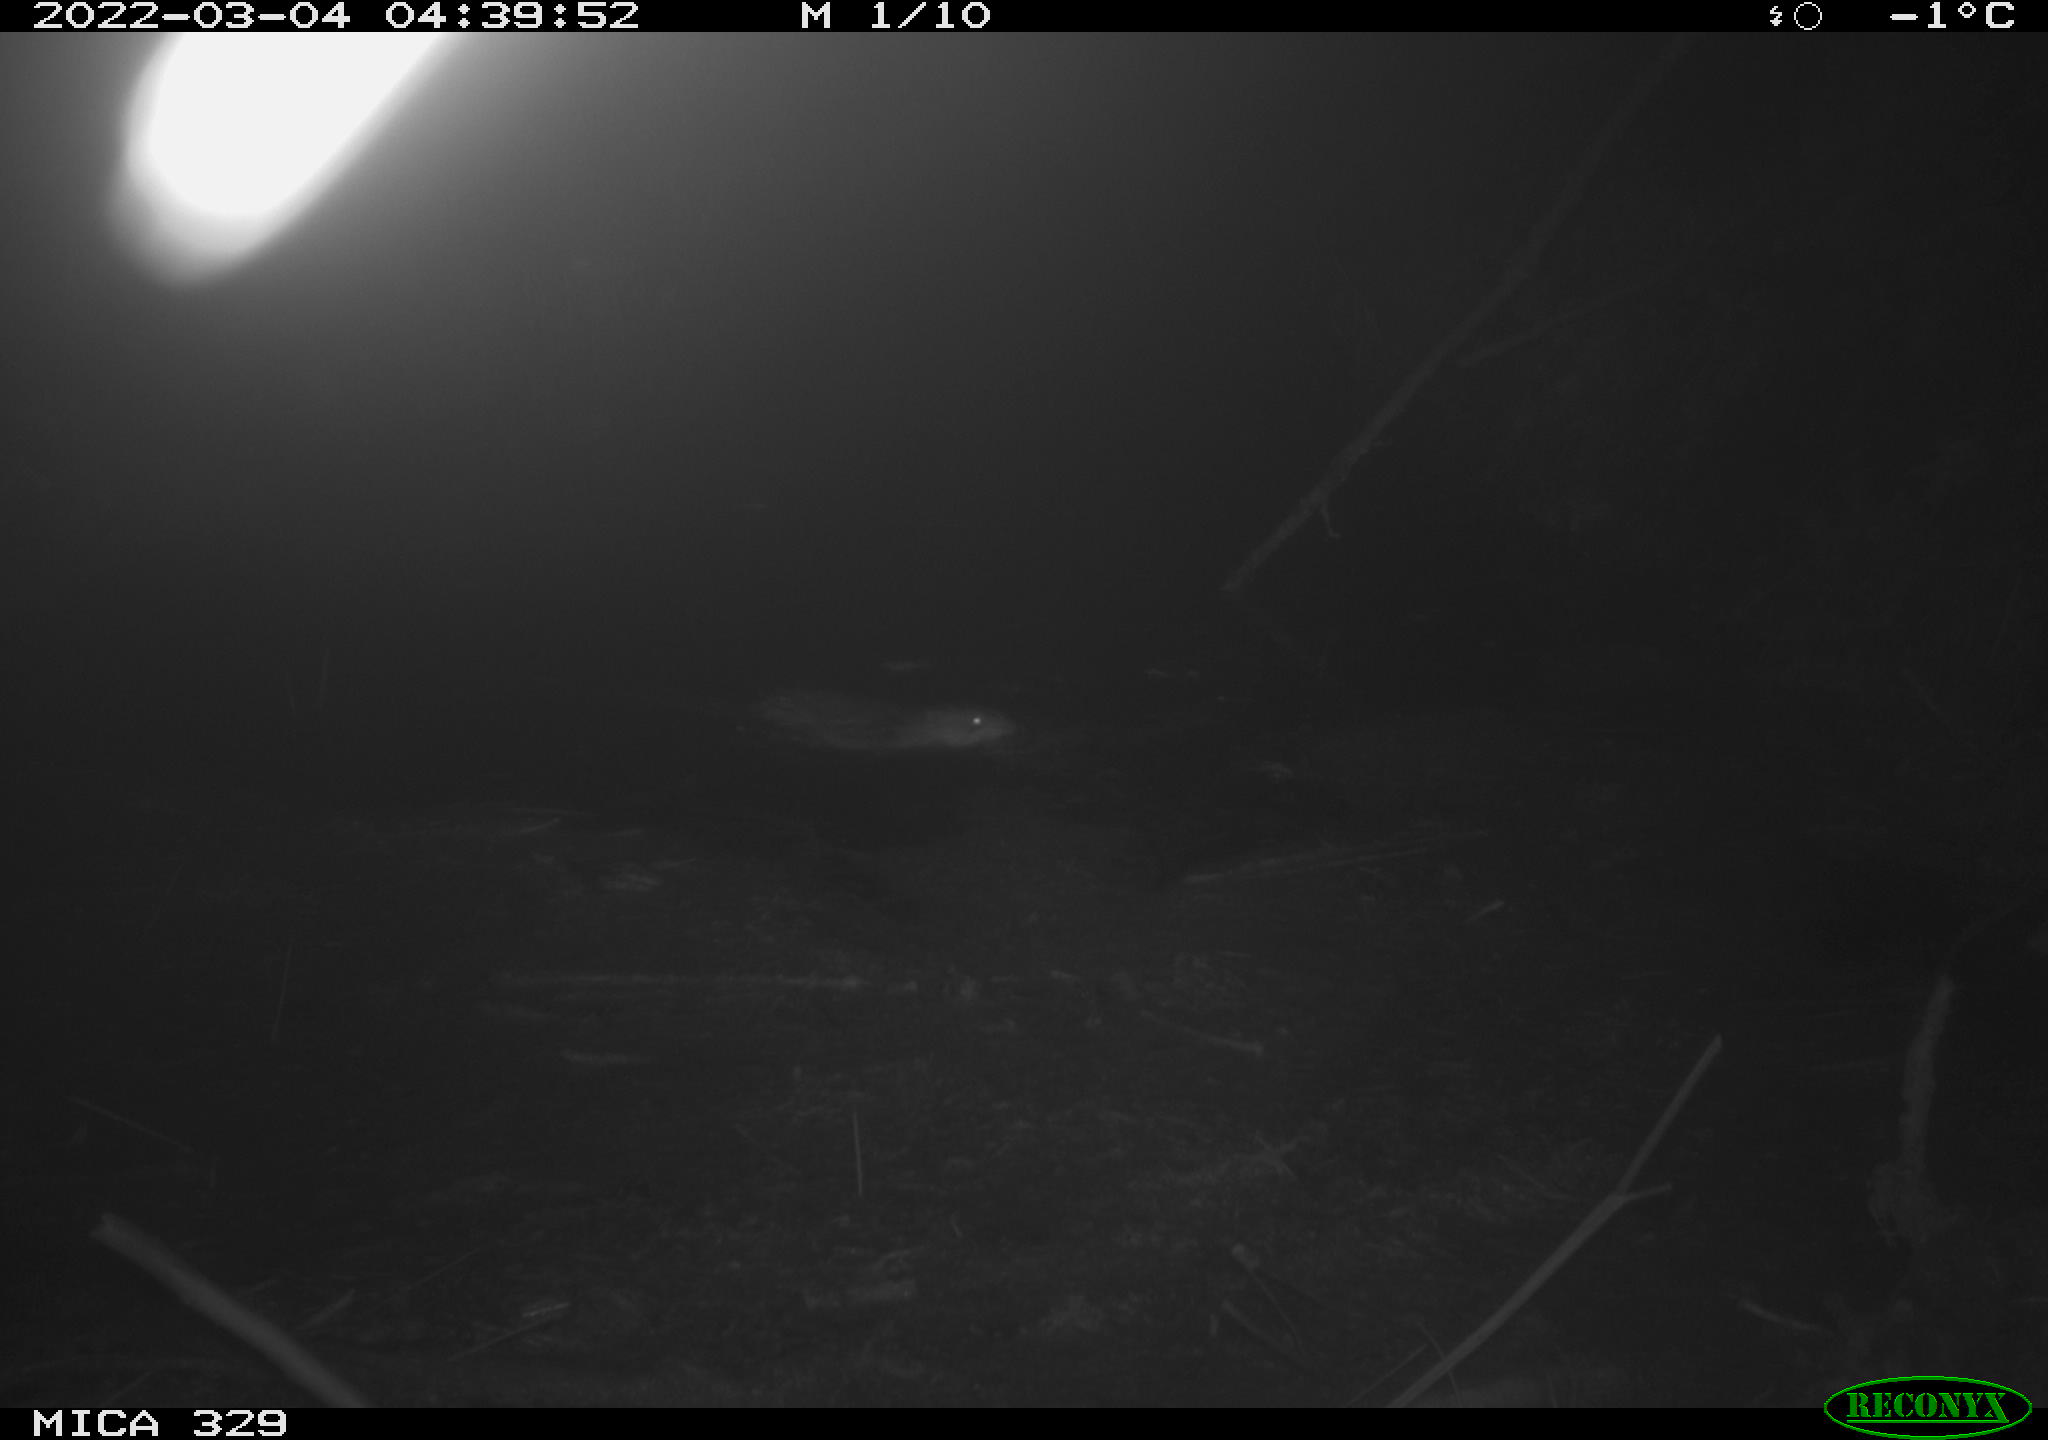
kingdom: Animalia
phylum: Chordata
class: Mammalia
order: Rodentia
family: Cricetidae
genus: Ondatra
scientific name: Ondatra zibethicus
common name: Muskrat
